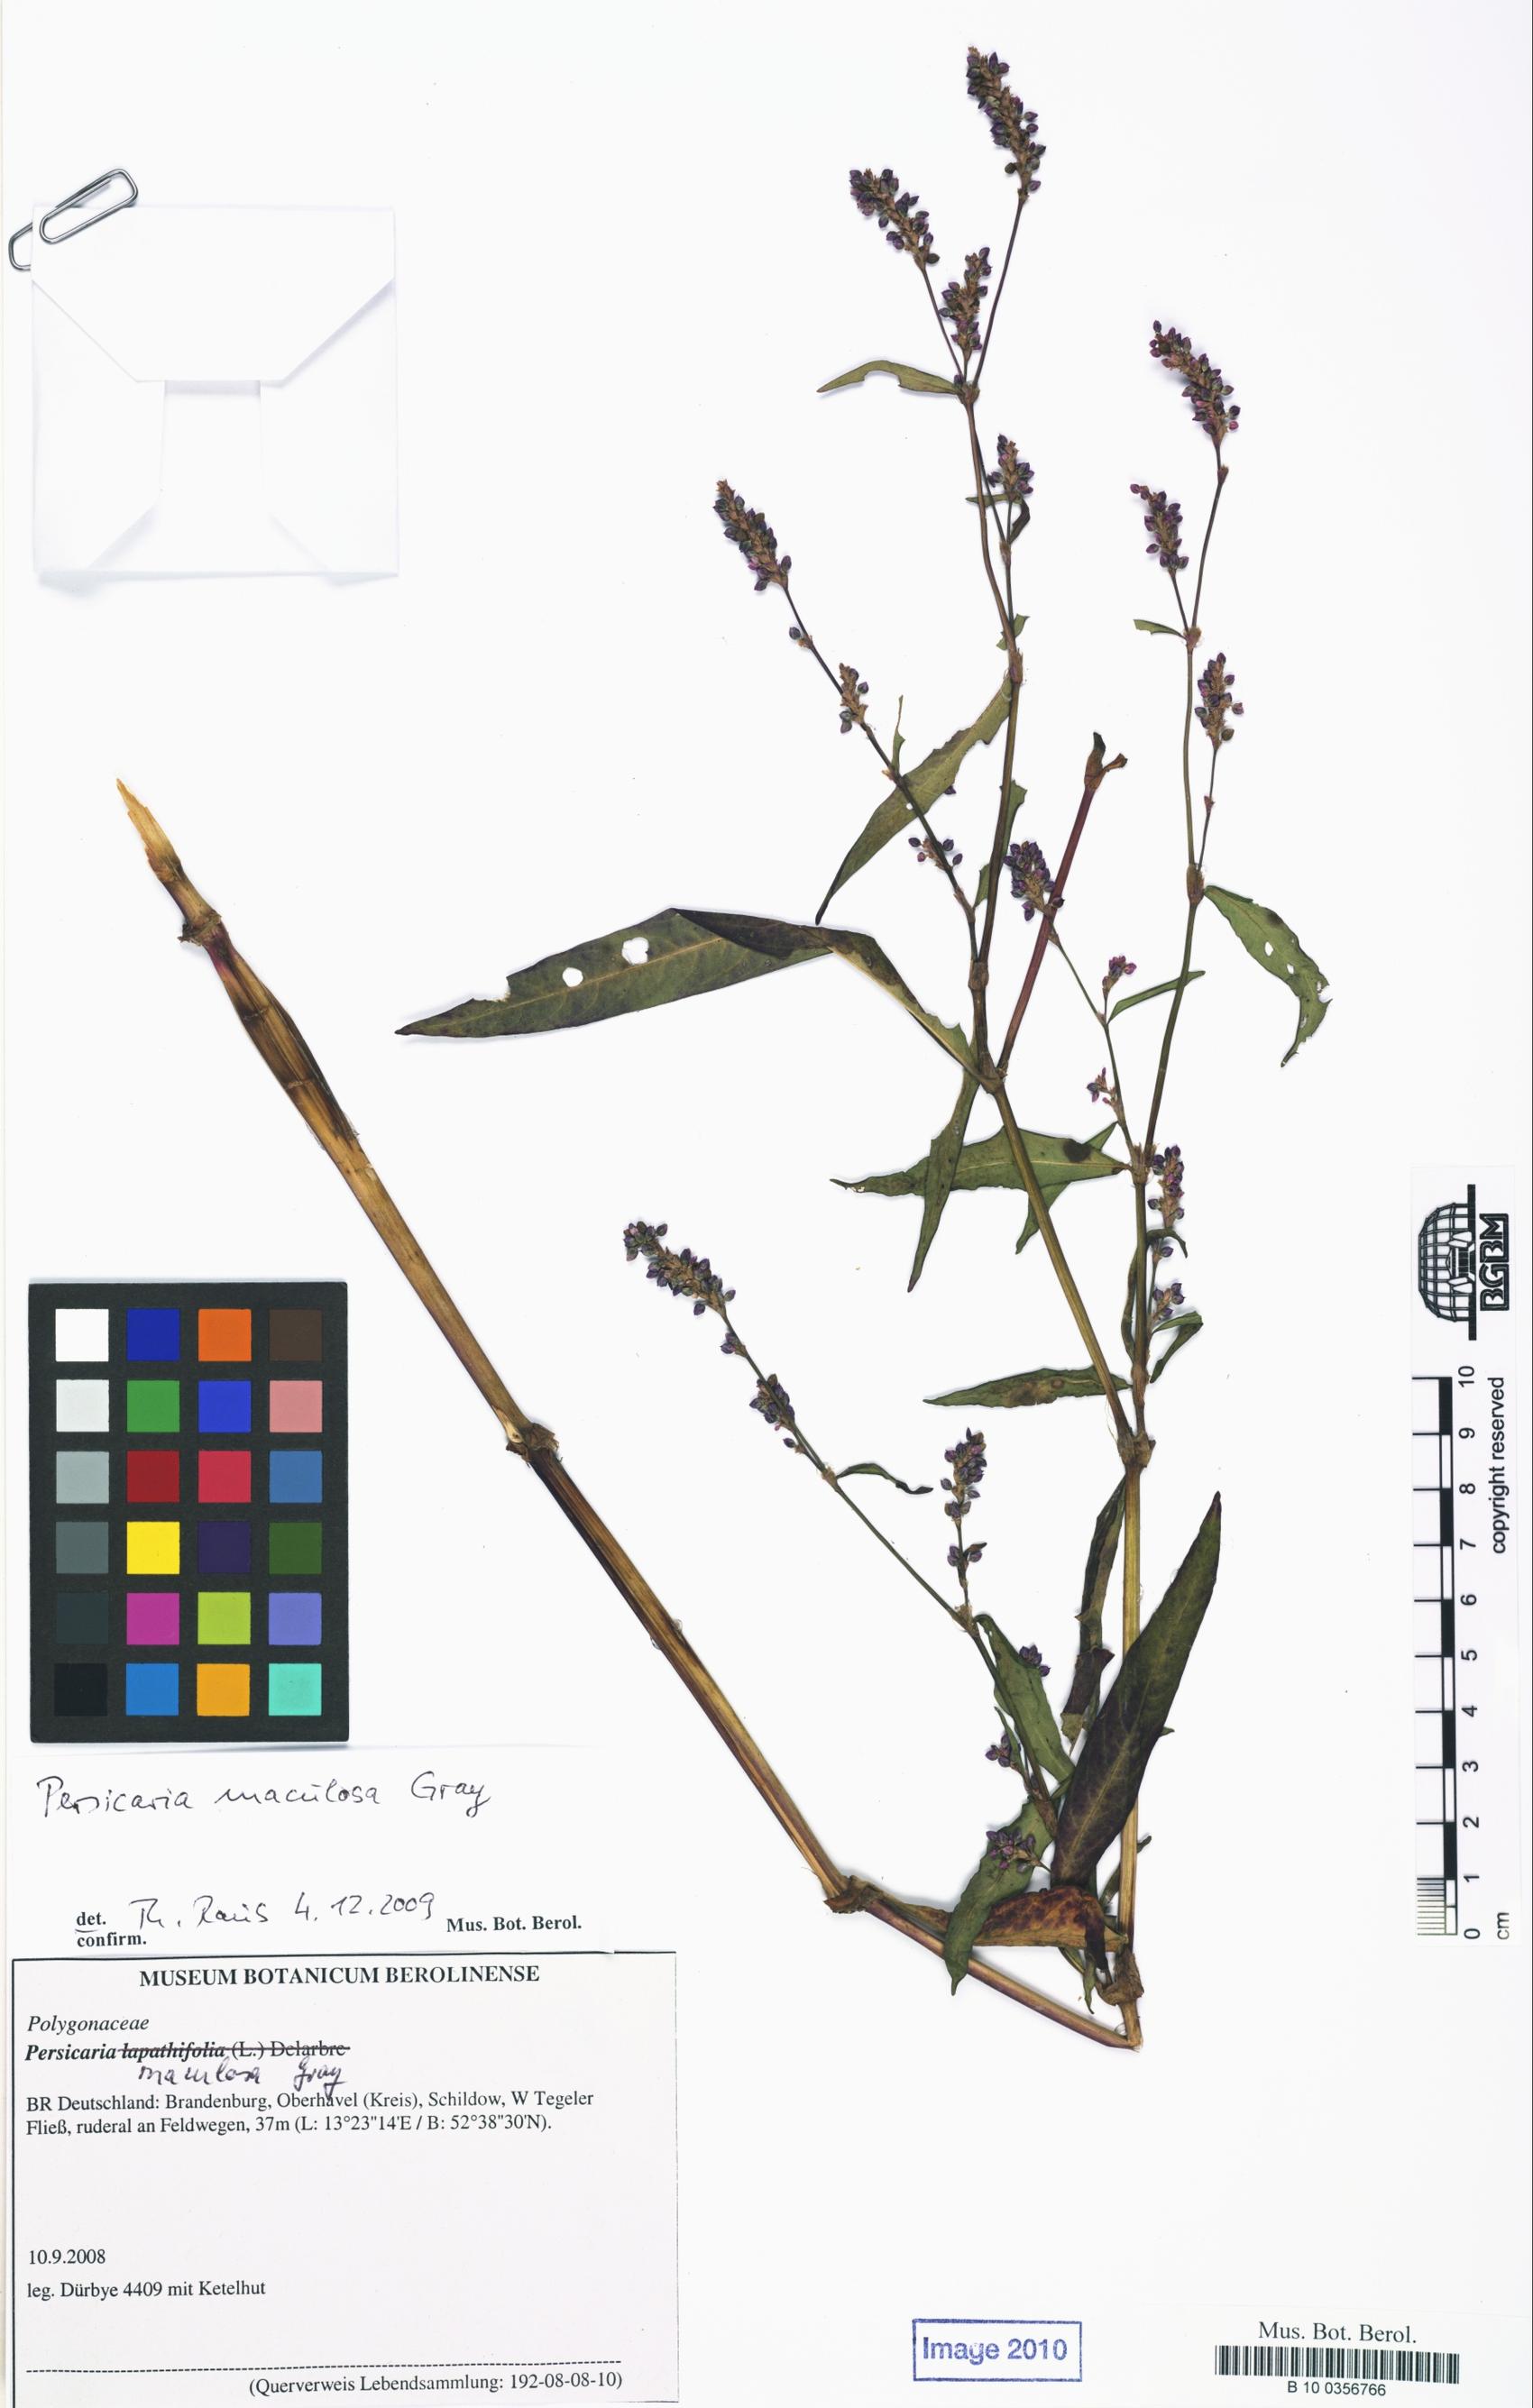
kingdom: Plantae
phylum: Tracheophyta
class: Magnoliopsida
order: Caryophyllales
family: Polygonaceae
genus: Persicaria
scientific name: Persicaria maculosa
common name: Redshank
